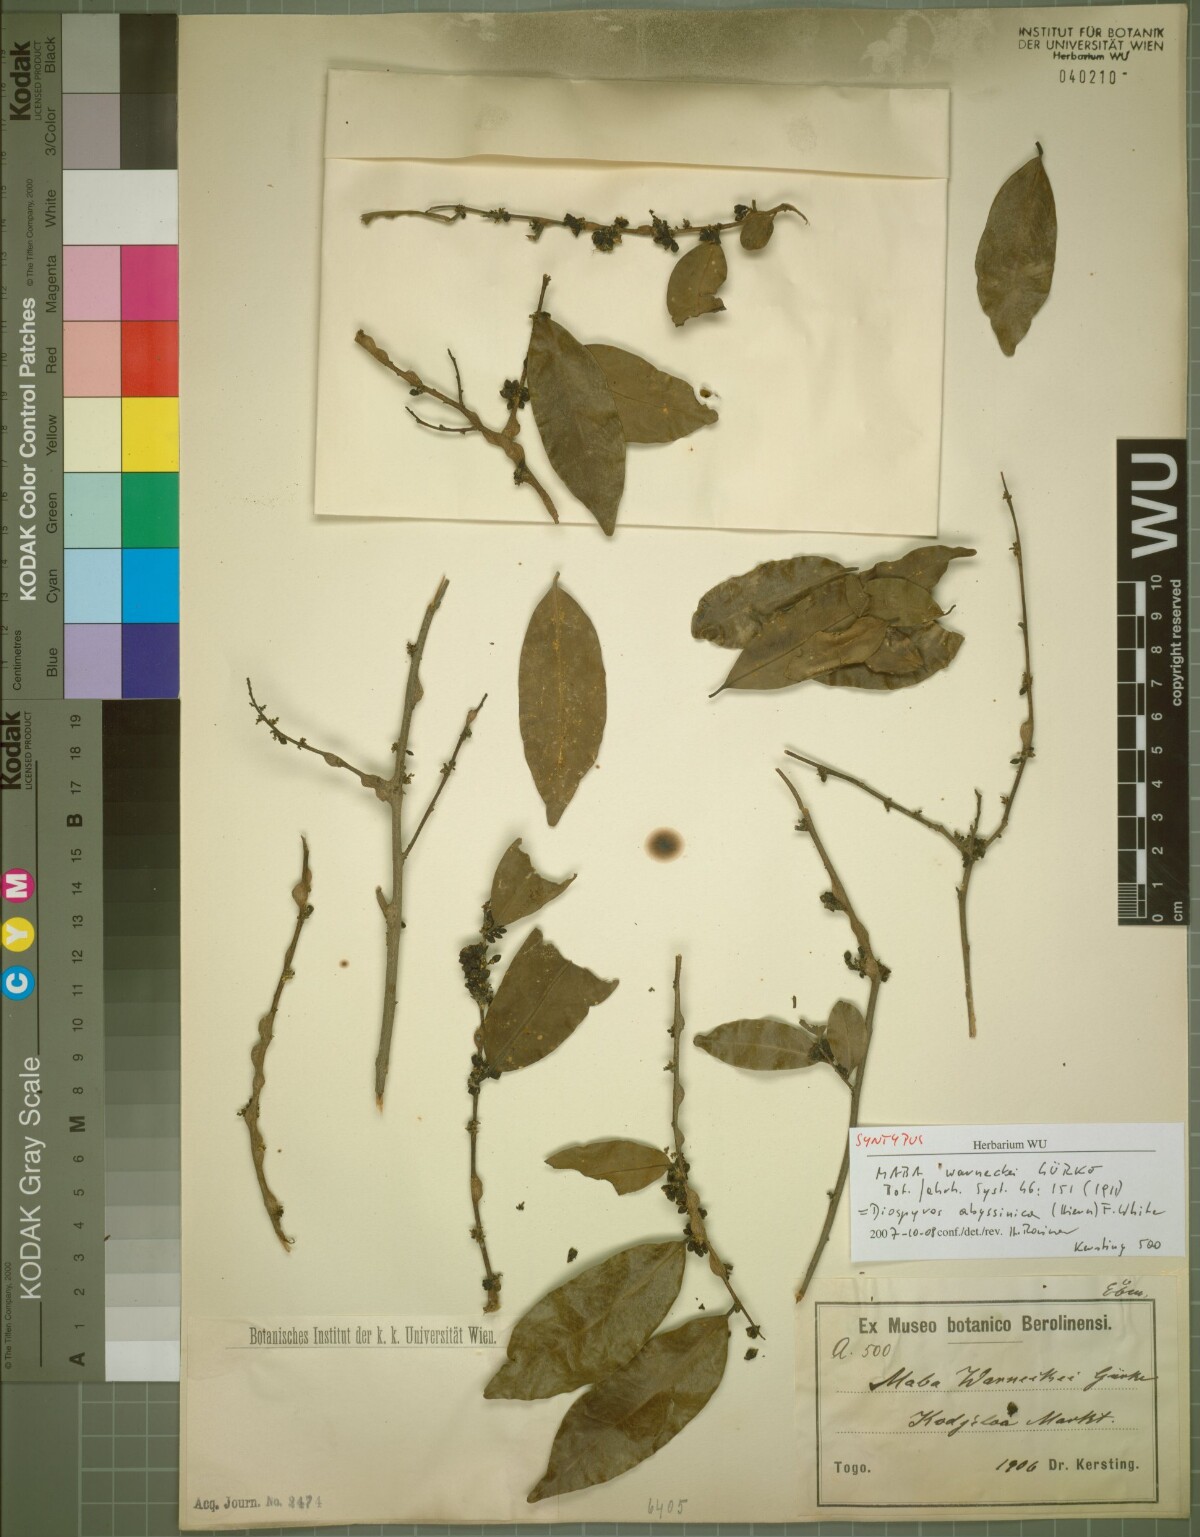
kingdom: Plantae
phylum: Tracheophyta
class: Magnoliopsida
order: Ericales
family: Ebenaceae
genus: Diospyros
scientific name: Diospyros abyssinica
